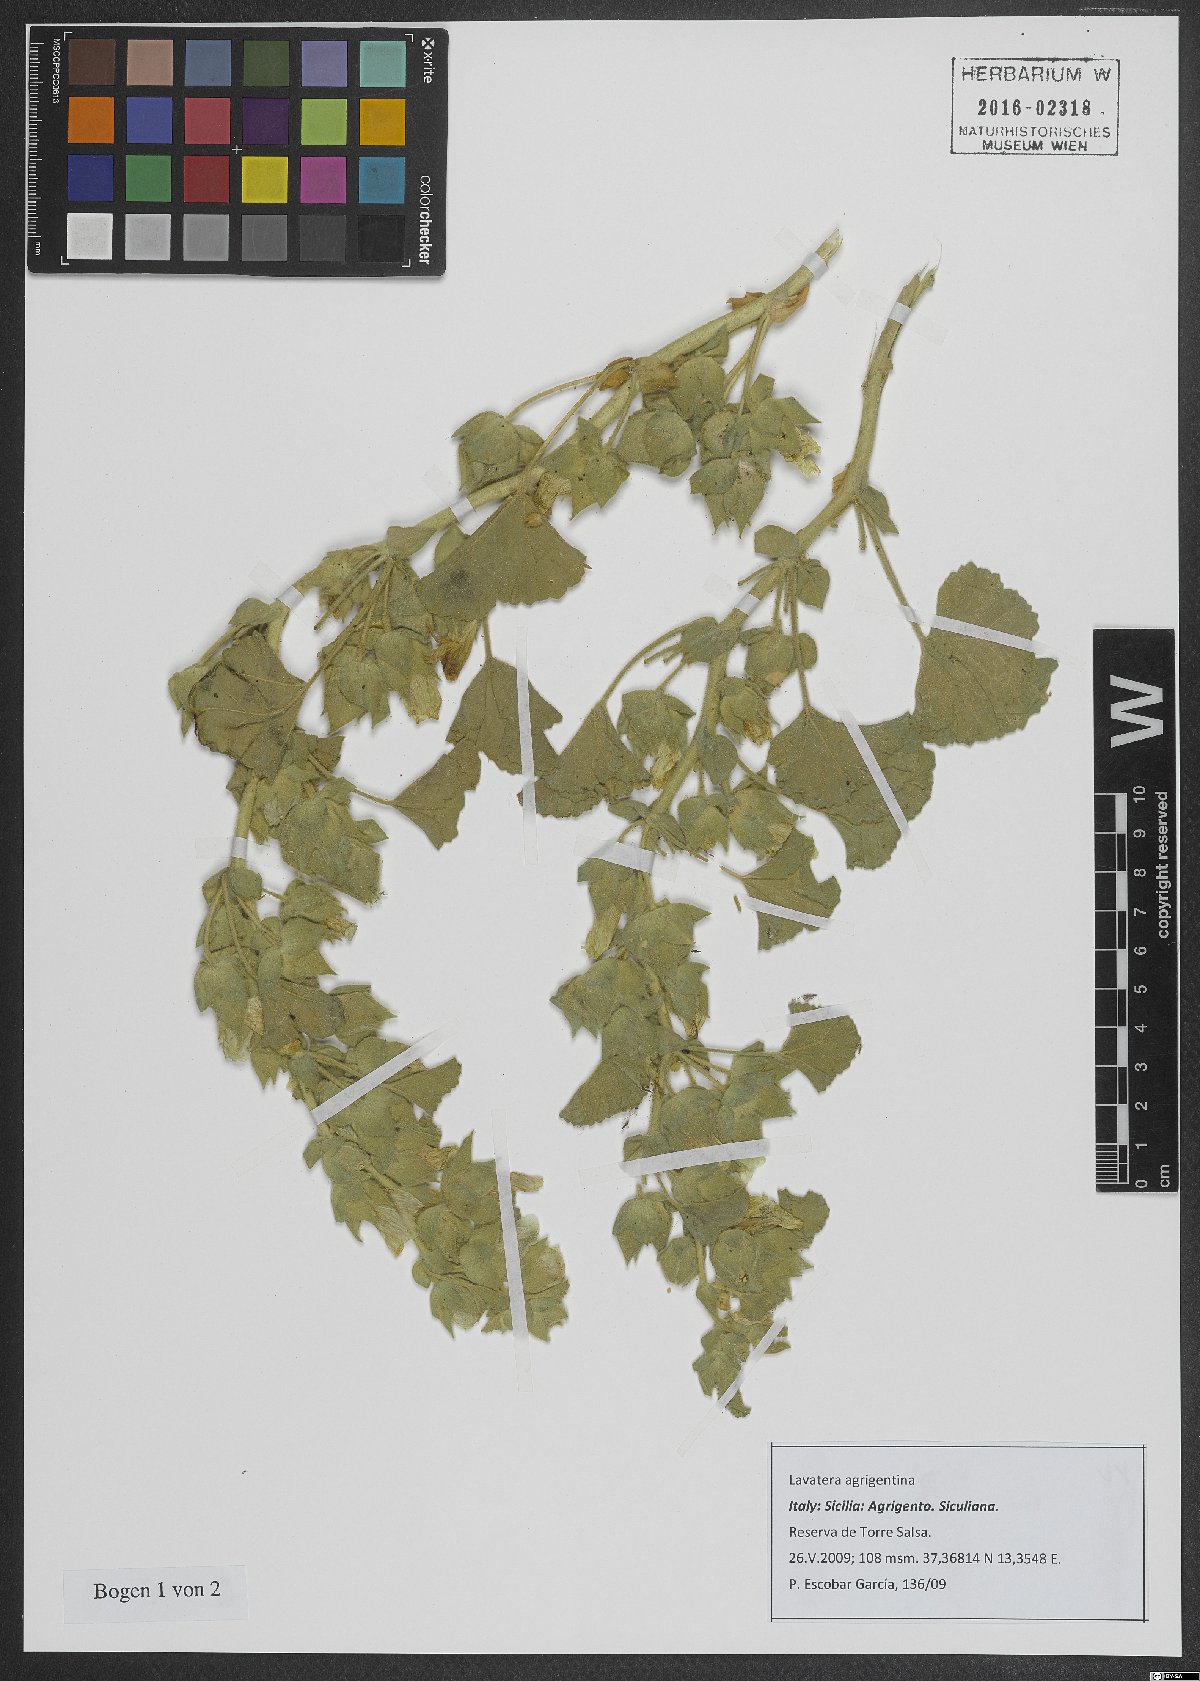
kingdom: Plantae
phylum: Tracheophyta
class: Magnoliopsida
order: Malvales
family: Malvaceae
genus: Malva
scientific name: Malva agrigentina
